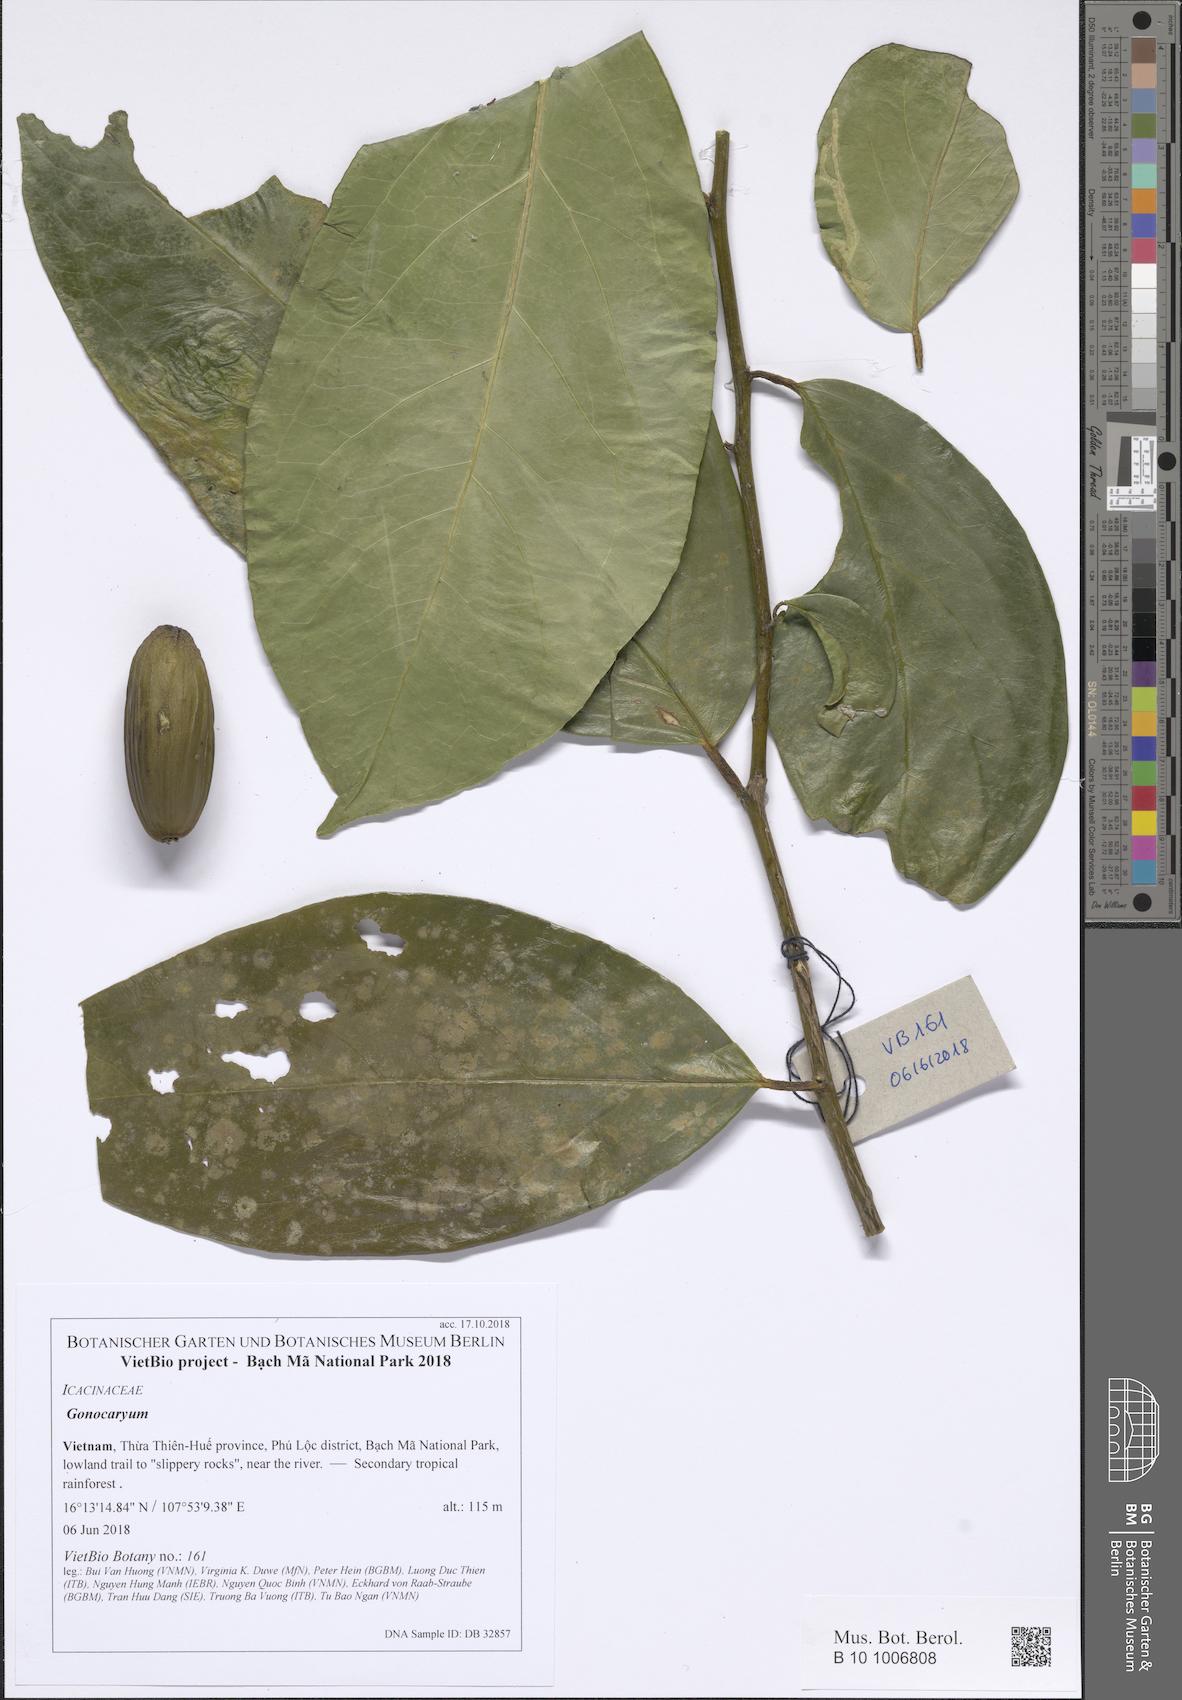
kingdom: Plantae
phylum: Tracheophyta
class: Magnoliopsida
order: Cardiopteridales
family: Cardiopteridaceae
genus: Gonocaryum
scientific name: Gonocaryum lobbianum
